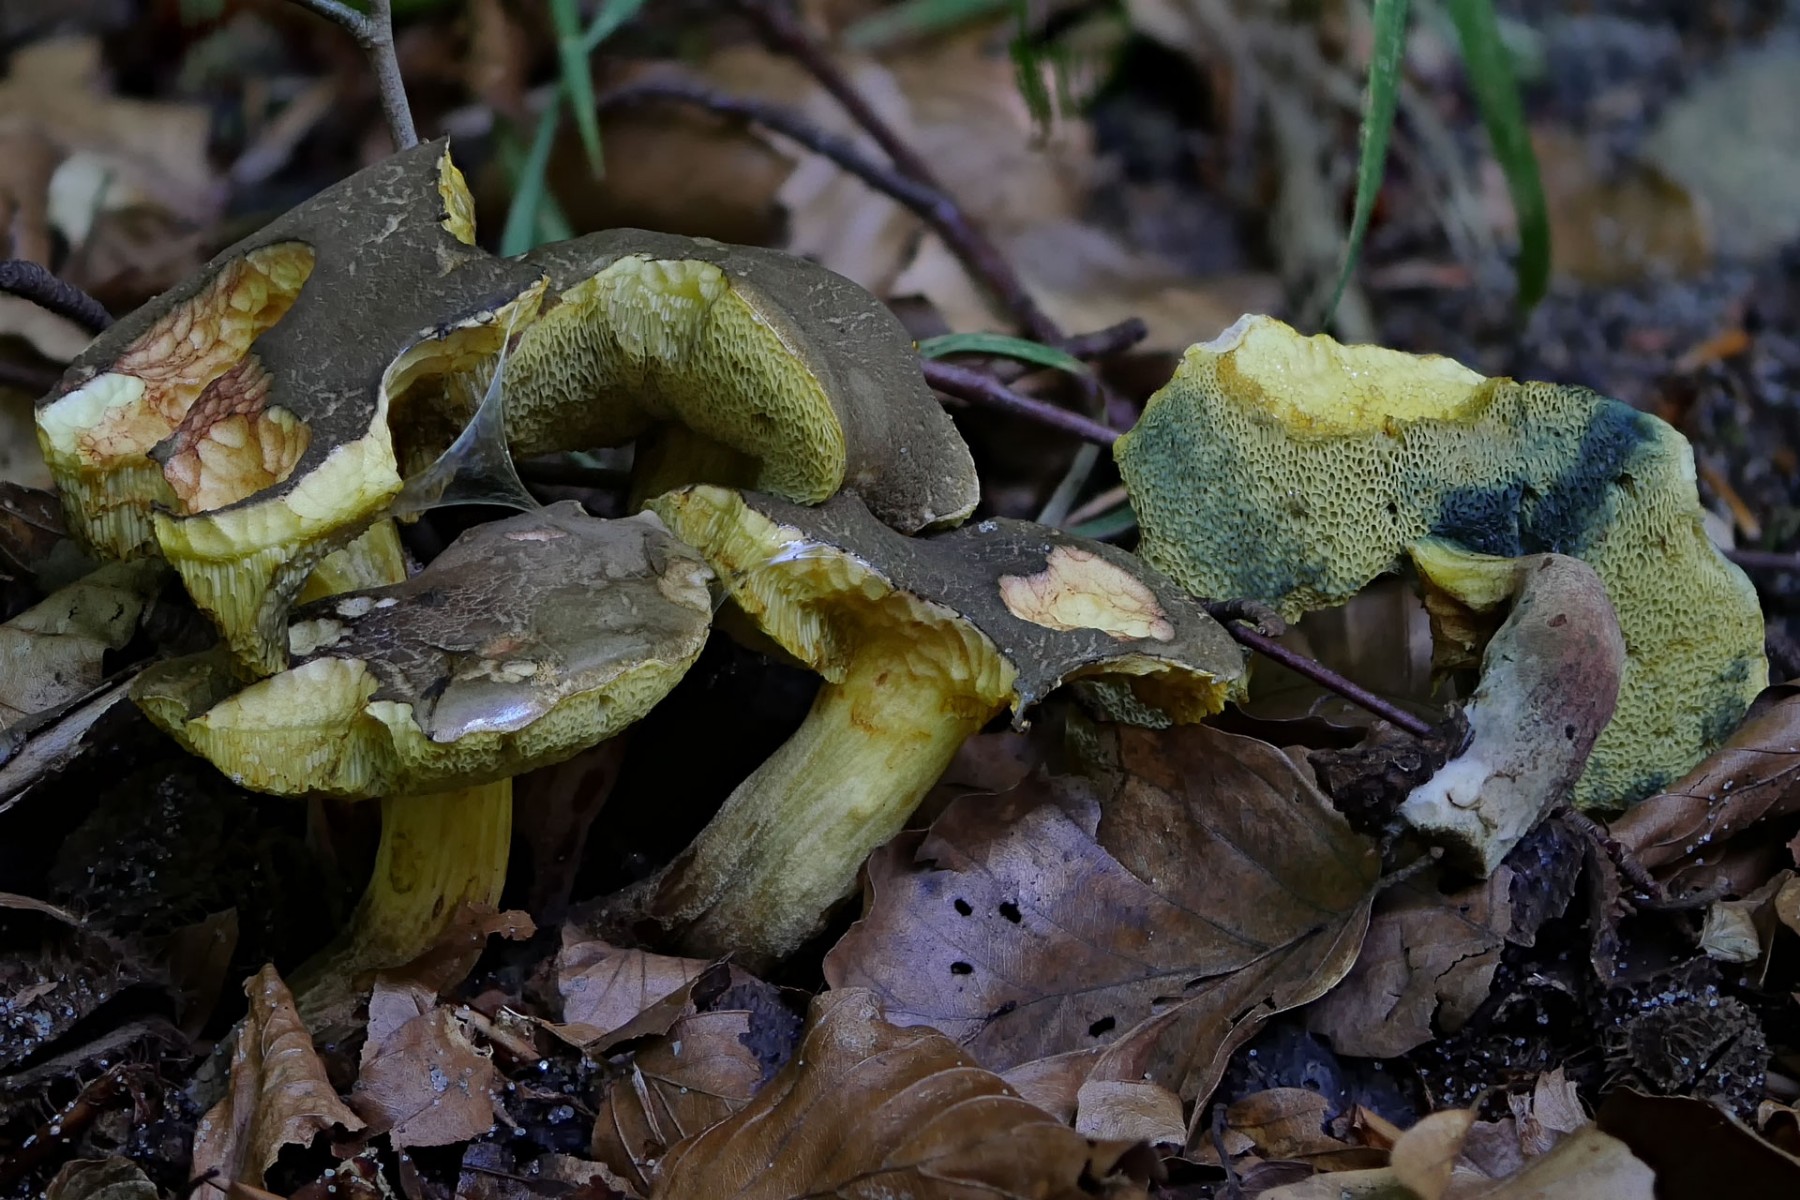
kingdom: Fungi
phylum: Basidiomycota
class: Agaricomycetes
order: Boletales
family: Boletaceae
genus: Xerocomellus
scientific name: Xerocomellus porosporus
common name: hvidsprukken rørhat
